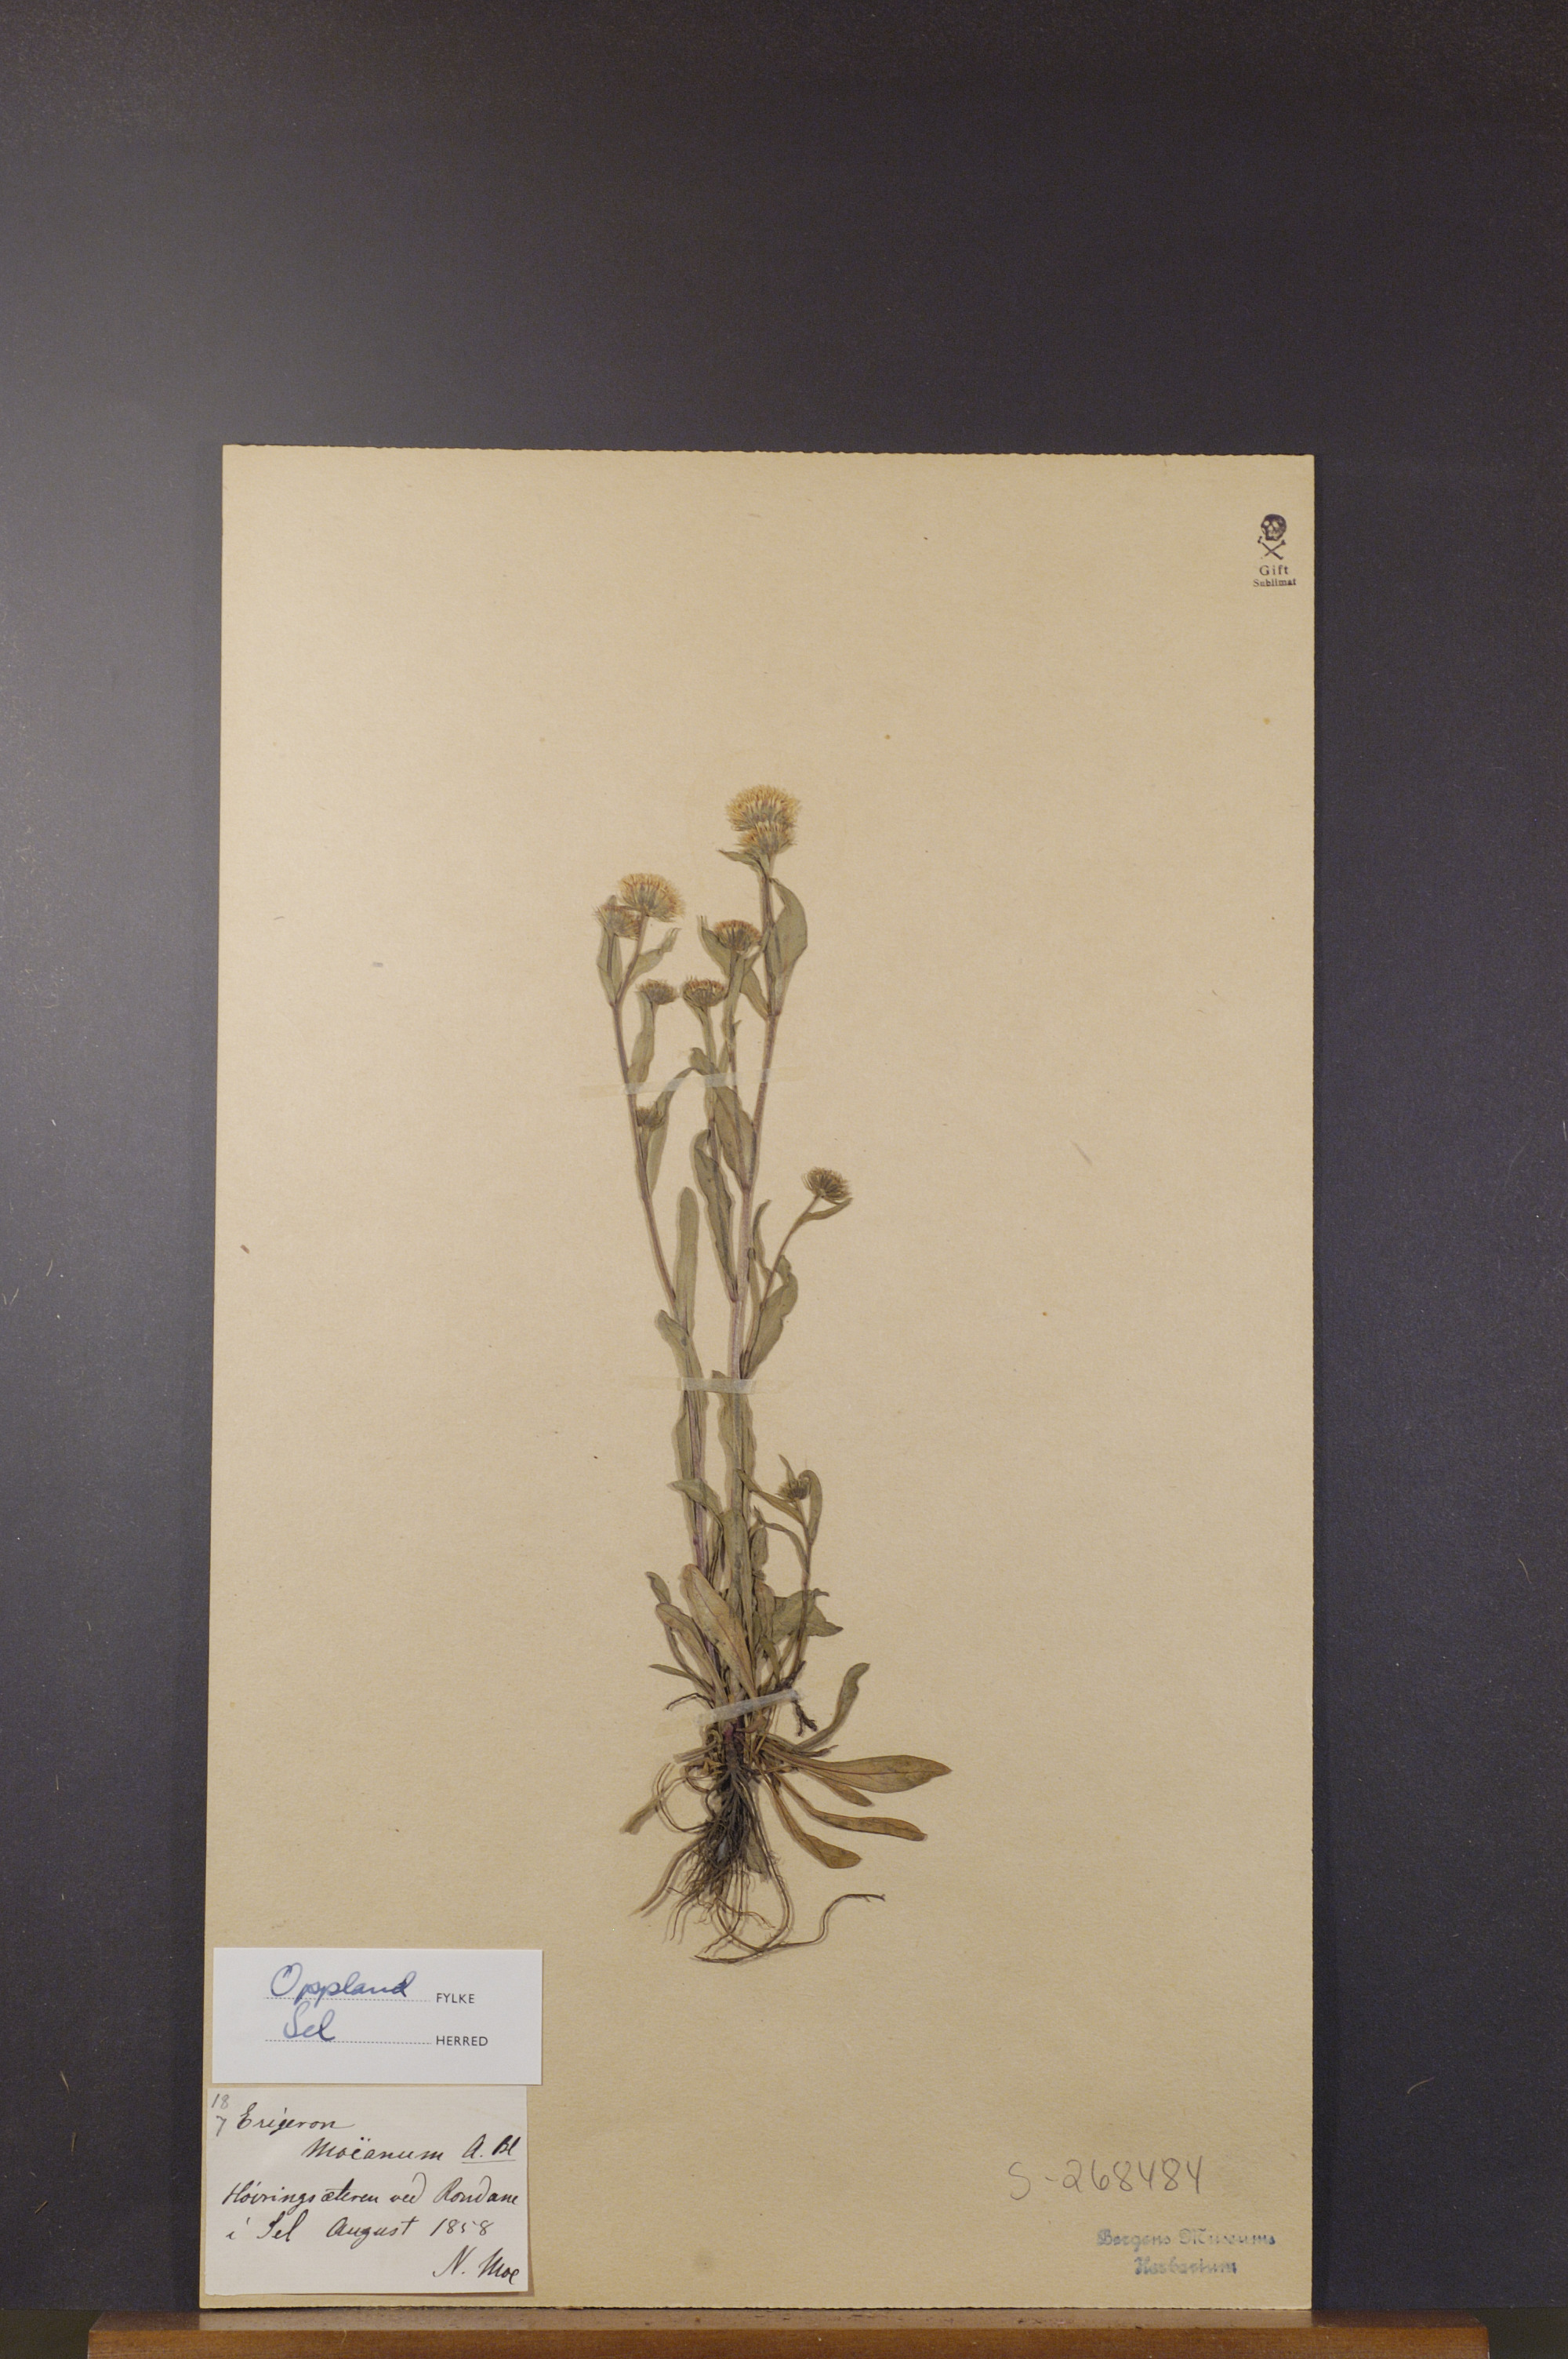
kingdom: Plantae
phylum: Tracheophyta
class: Magnoliopsida
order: Asterales
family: Asteraceae
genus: Erigeron
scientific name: Erigeron politus
